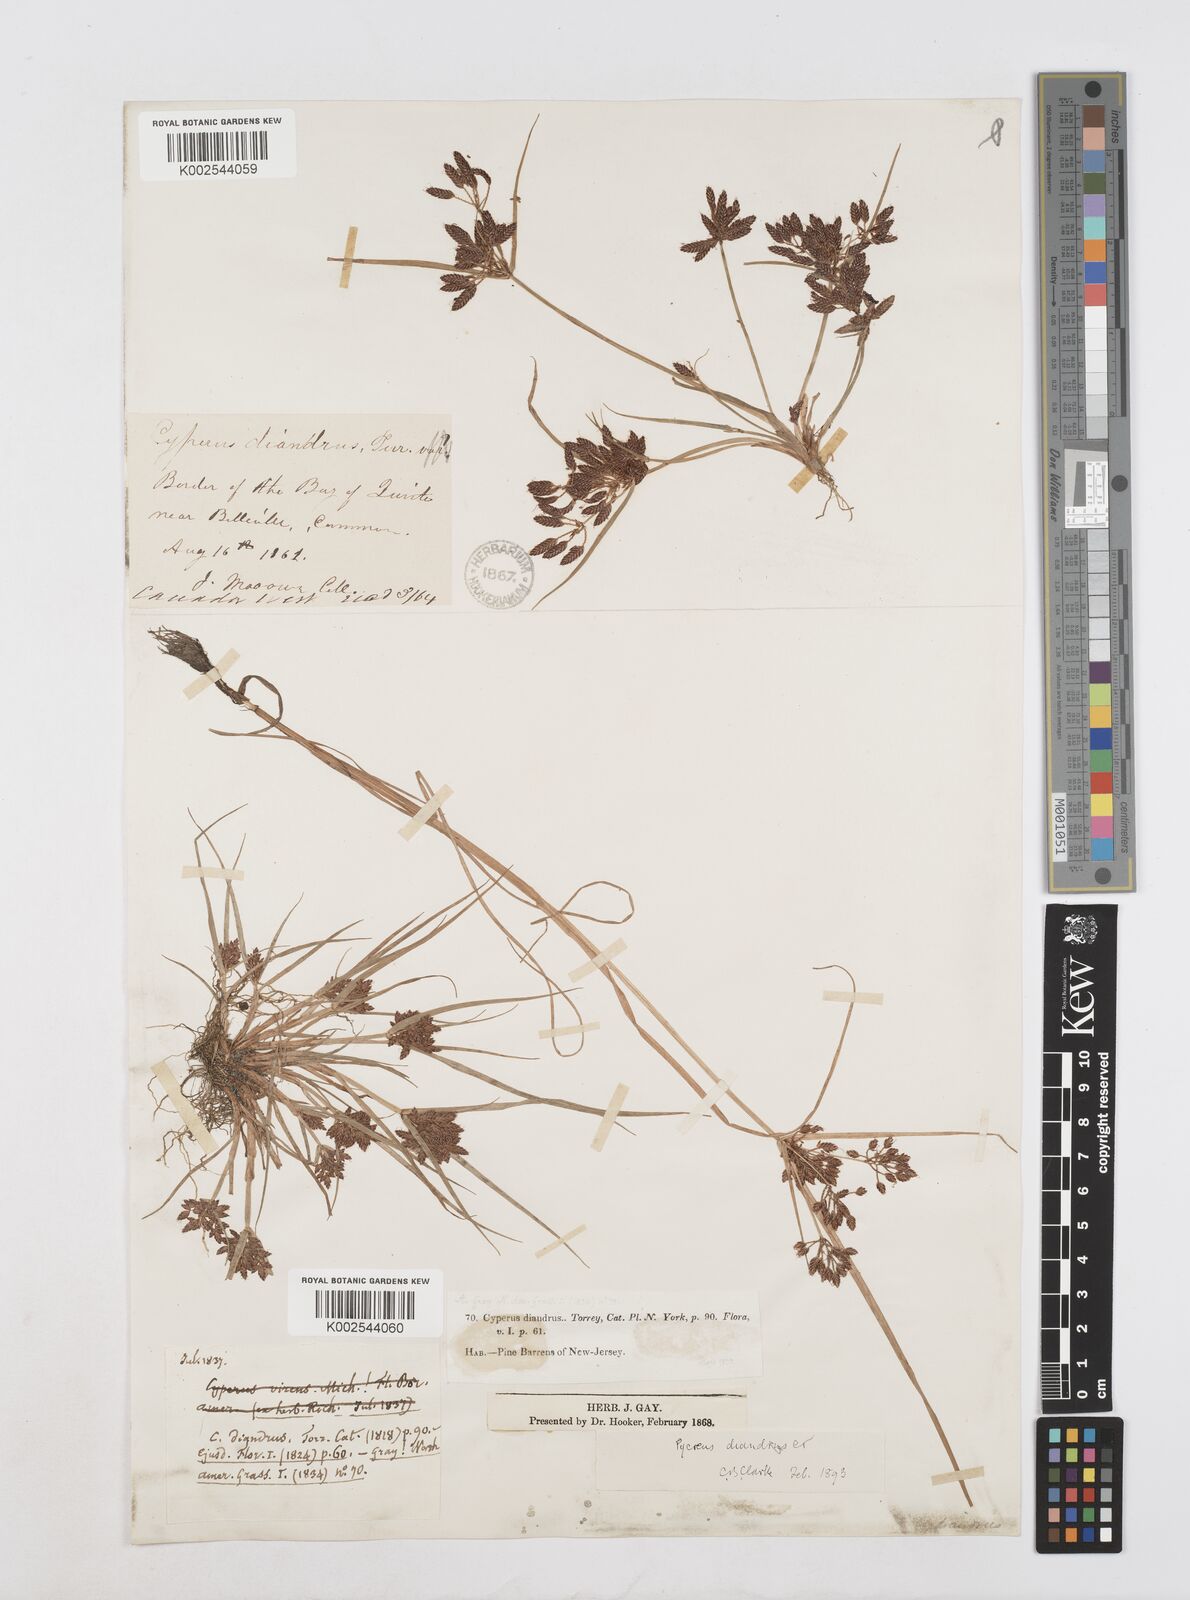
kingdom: Plantae
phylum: Tracheophyta
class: Liliopsida
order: Poales
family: Cyperaceae
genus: Cyperus
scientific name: Cyperus diandrus
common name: Low cyperus
